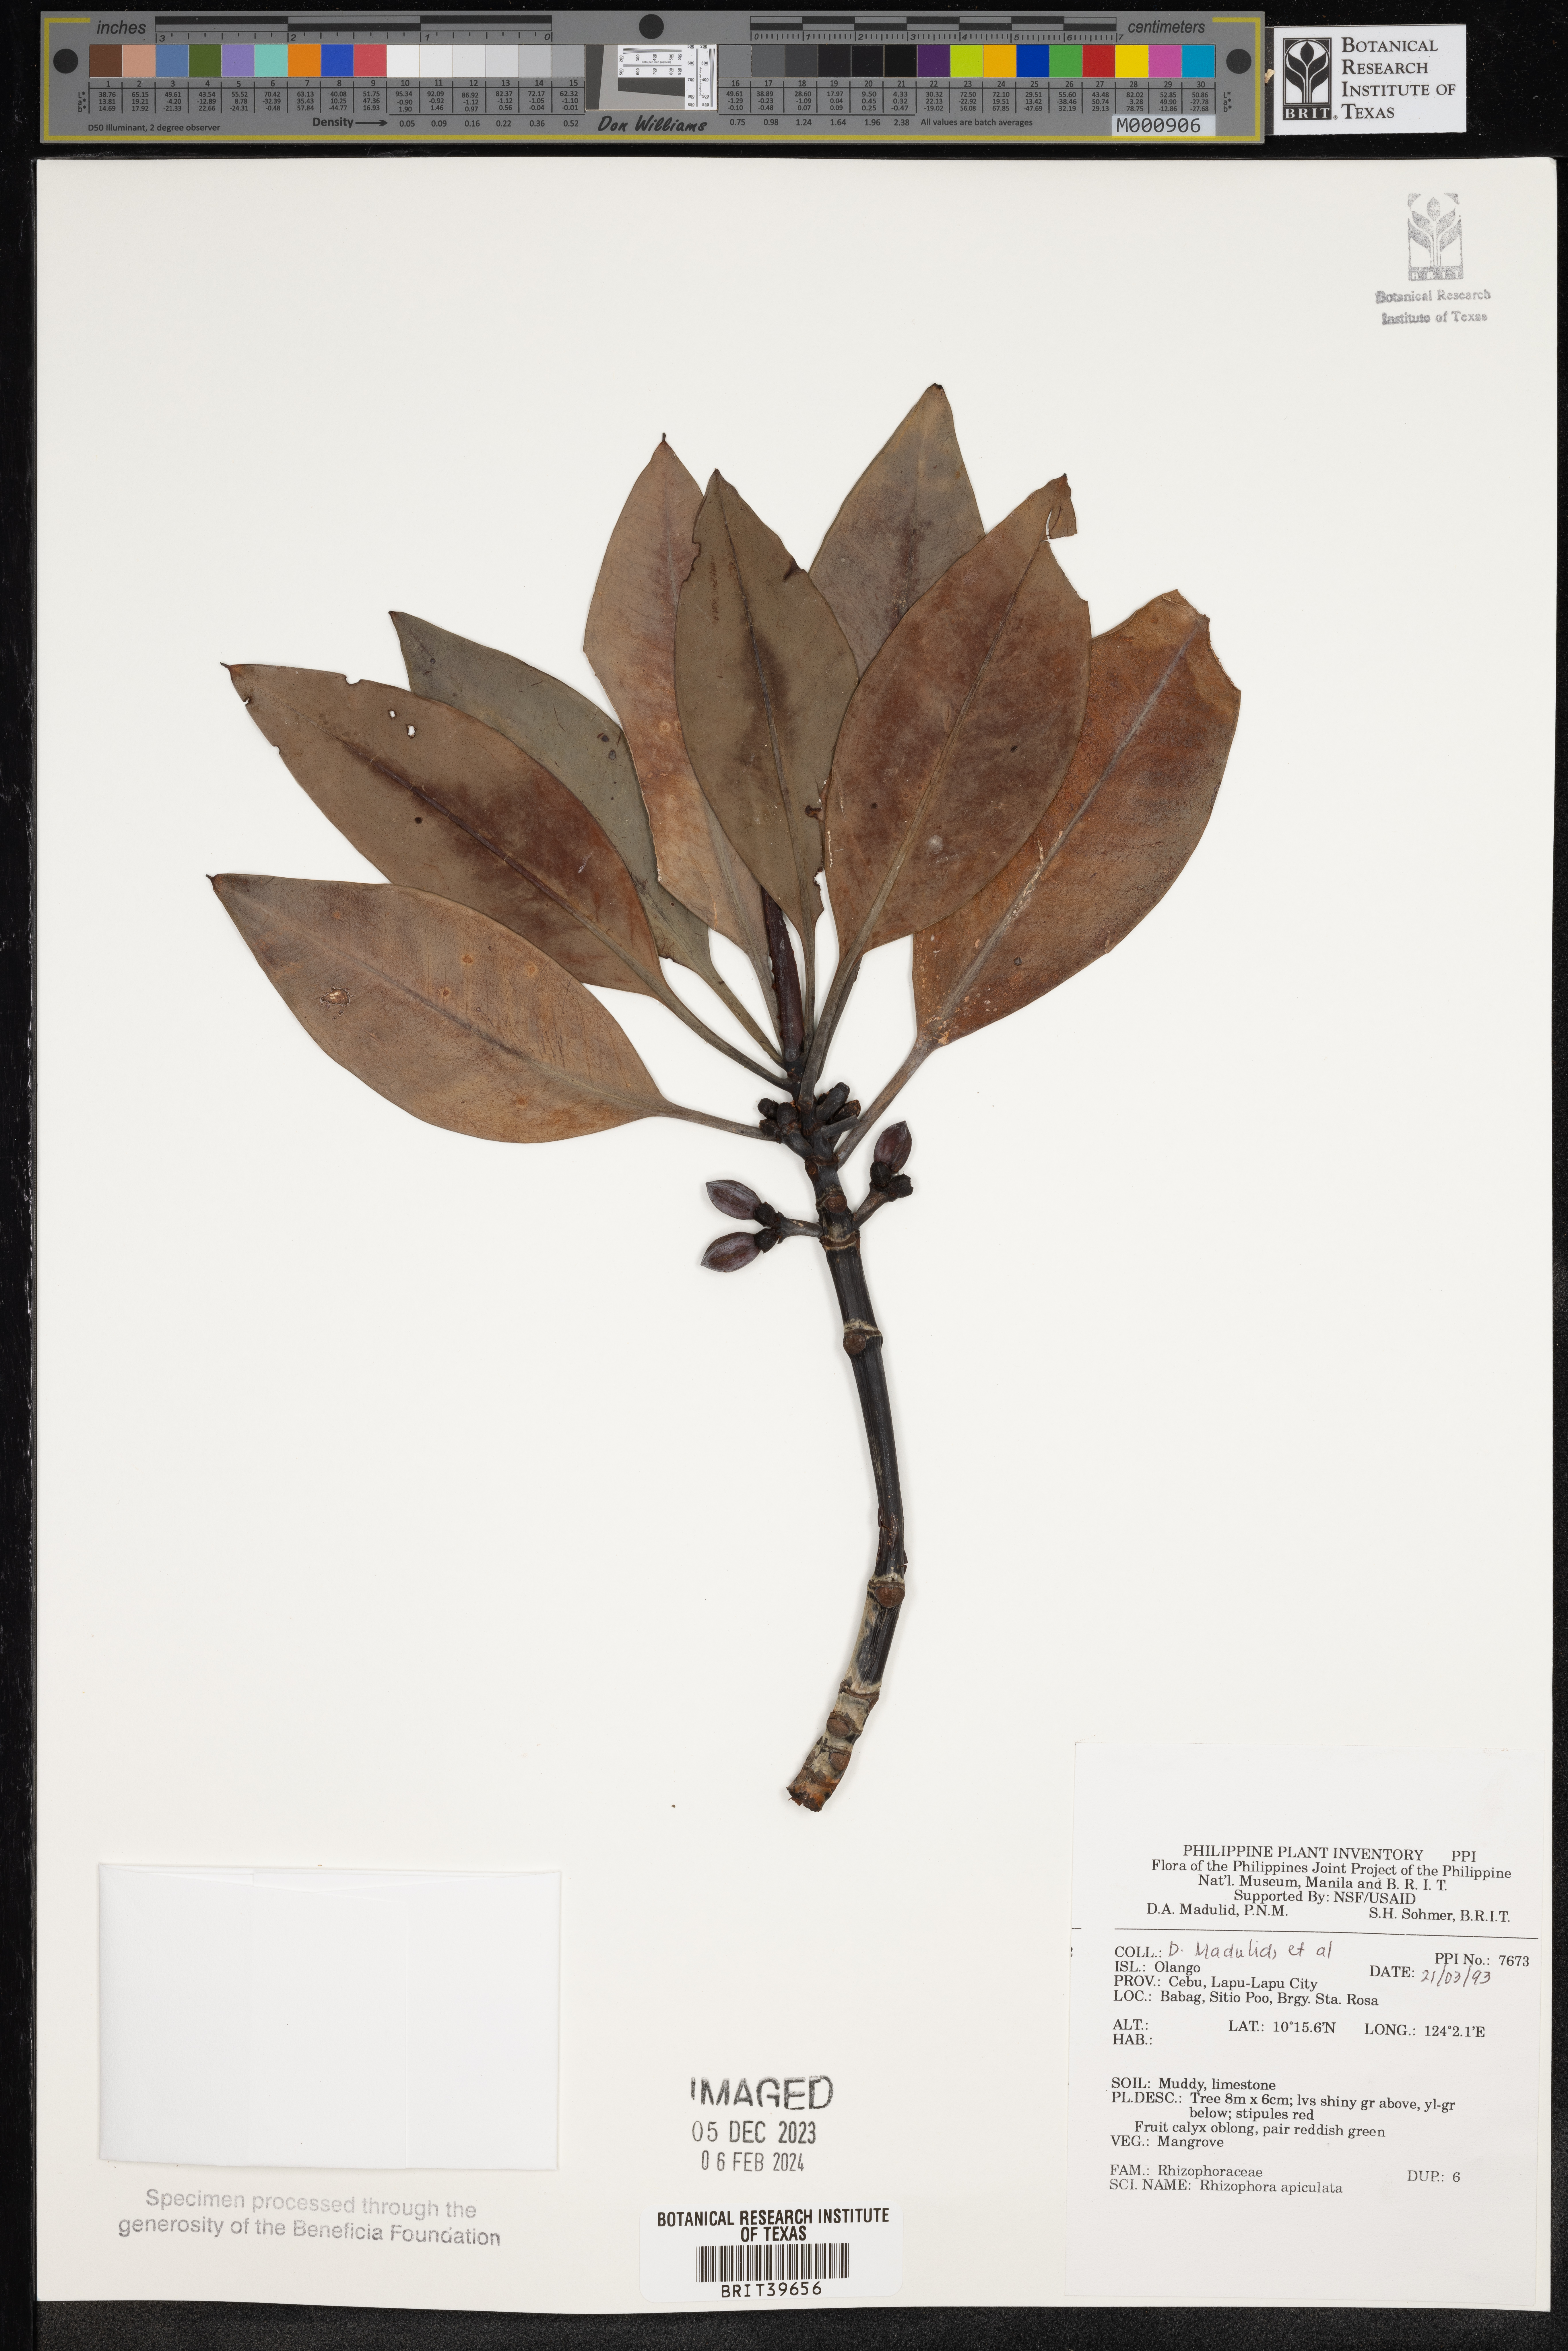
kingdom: Plantae
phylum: Tracheophyta
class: Magnoliopsida
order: Malpighiales
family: Rhizophoraceae
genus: Rhizophora
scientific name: Rhizophora apiculata
